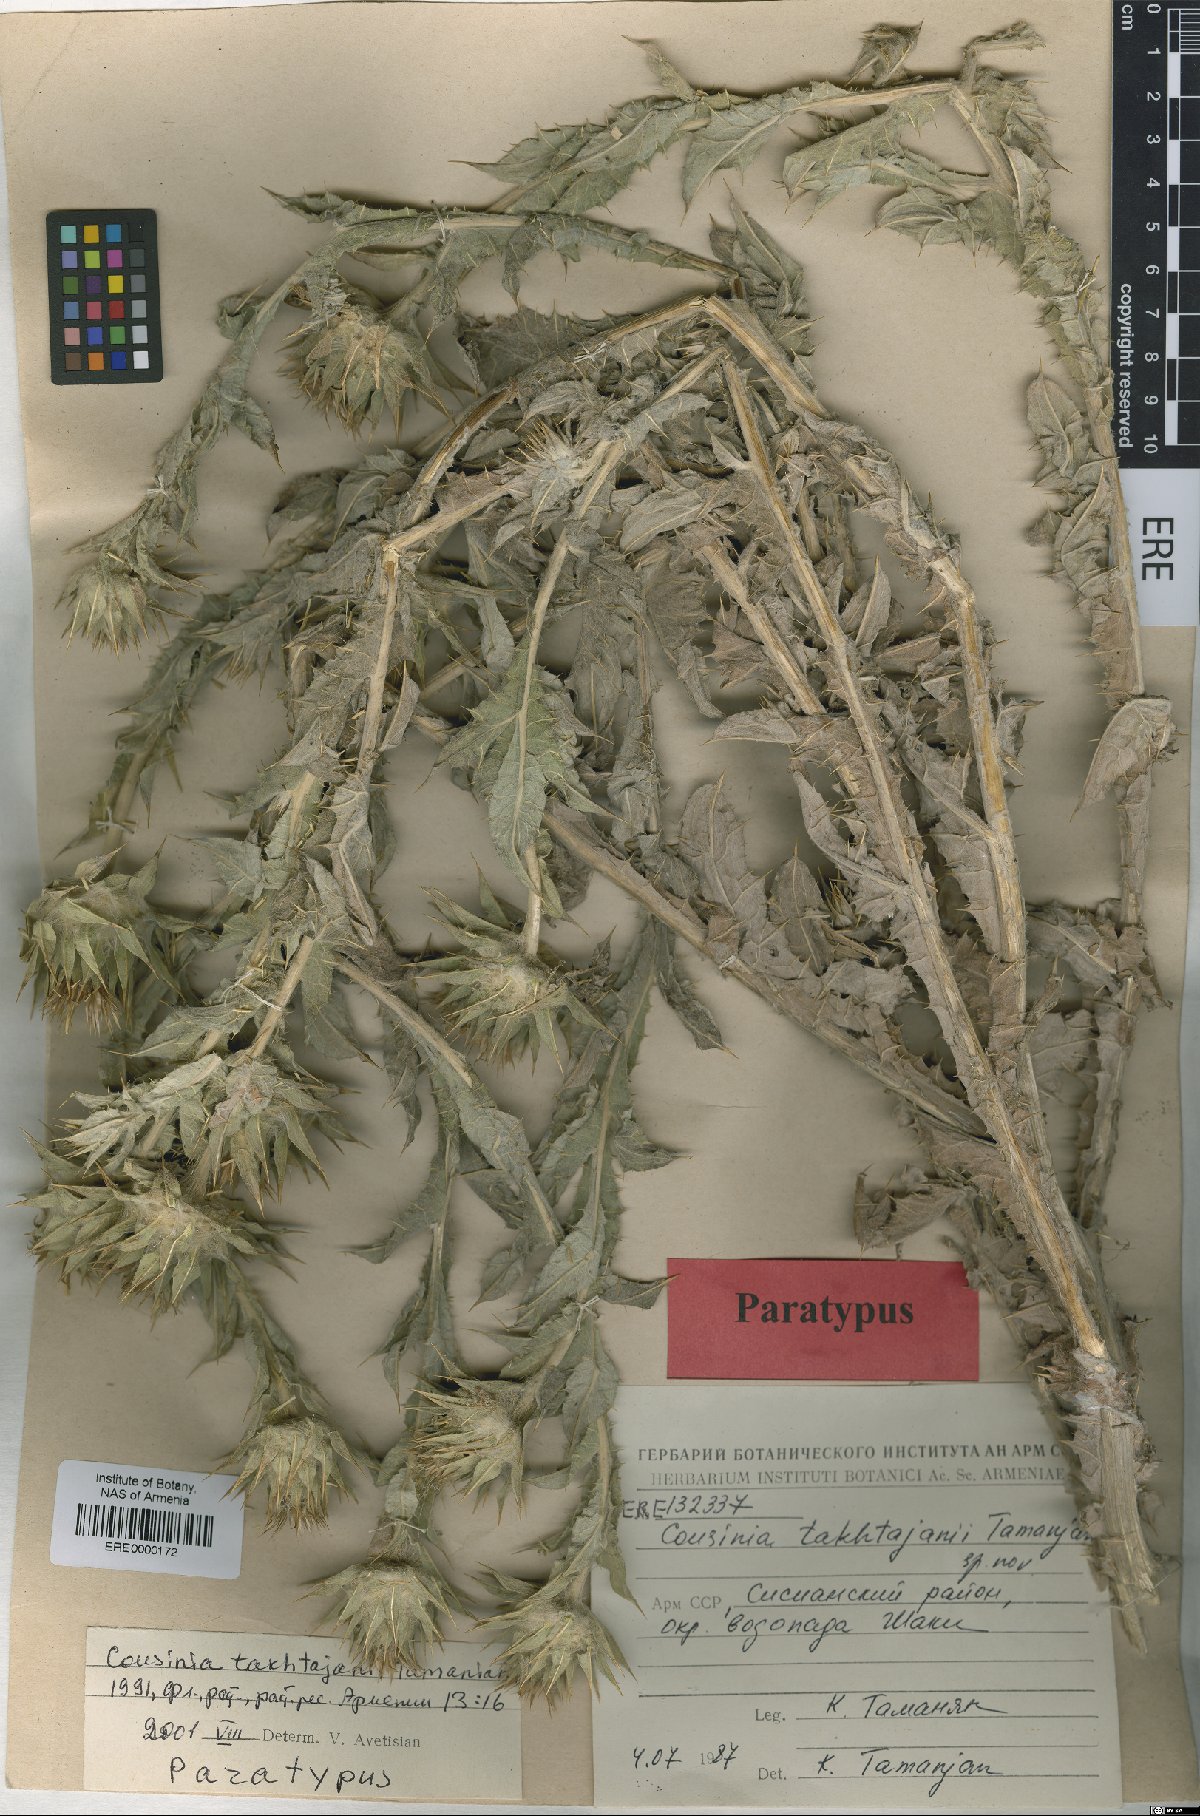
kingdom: Plantae
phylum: Tracheophyta
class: Magnoliopsida
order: Asterales
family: Asteraceae
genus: Cousinia
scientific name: Cousinia macrocephala
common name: Macrocephalous cousinia
